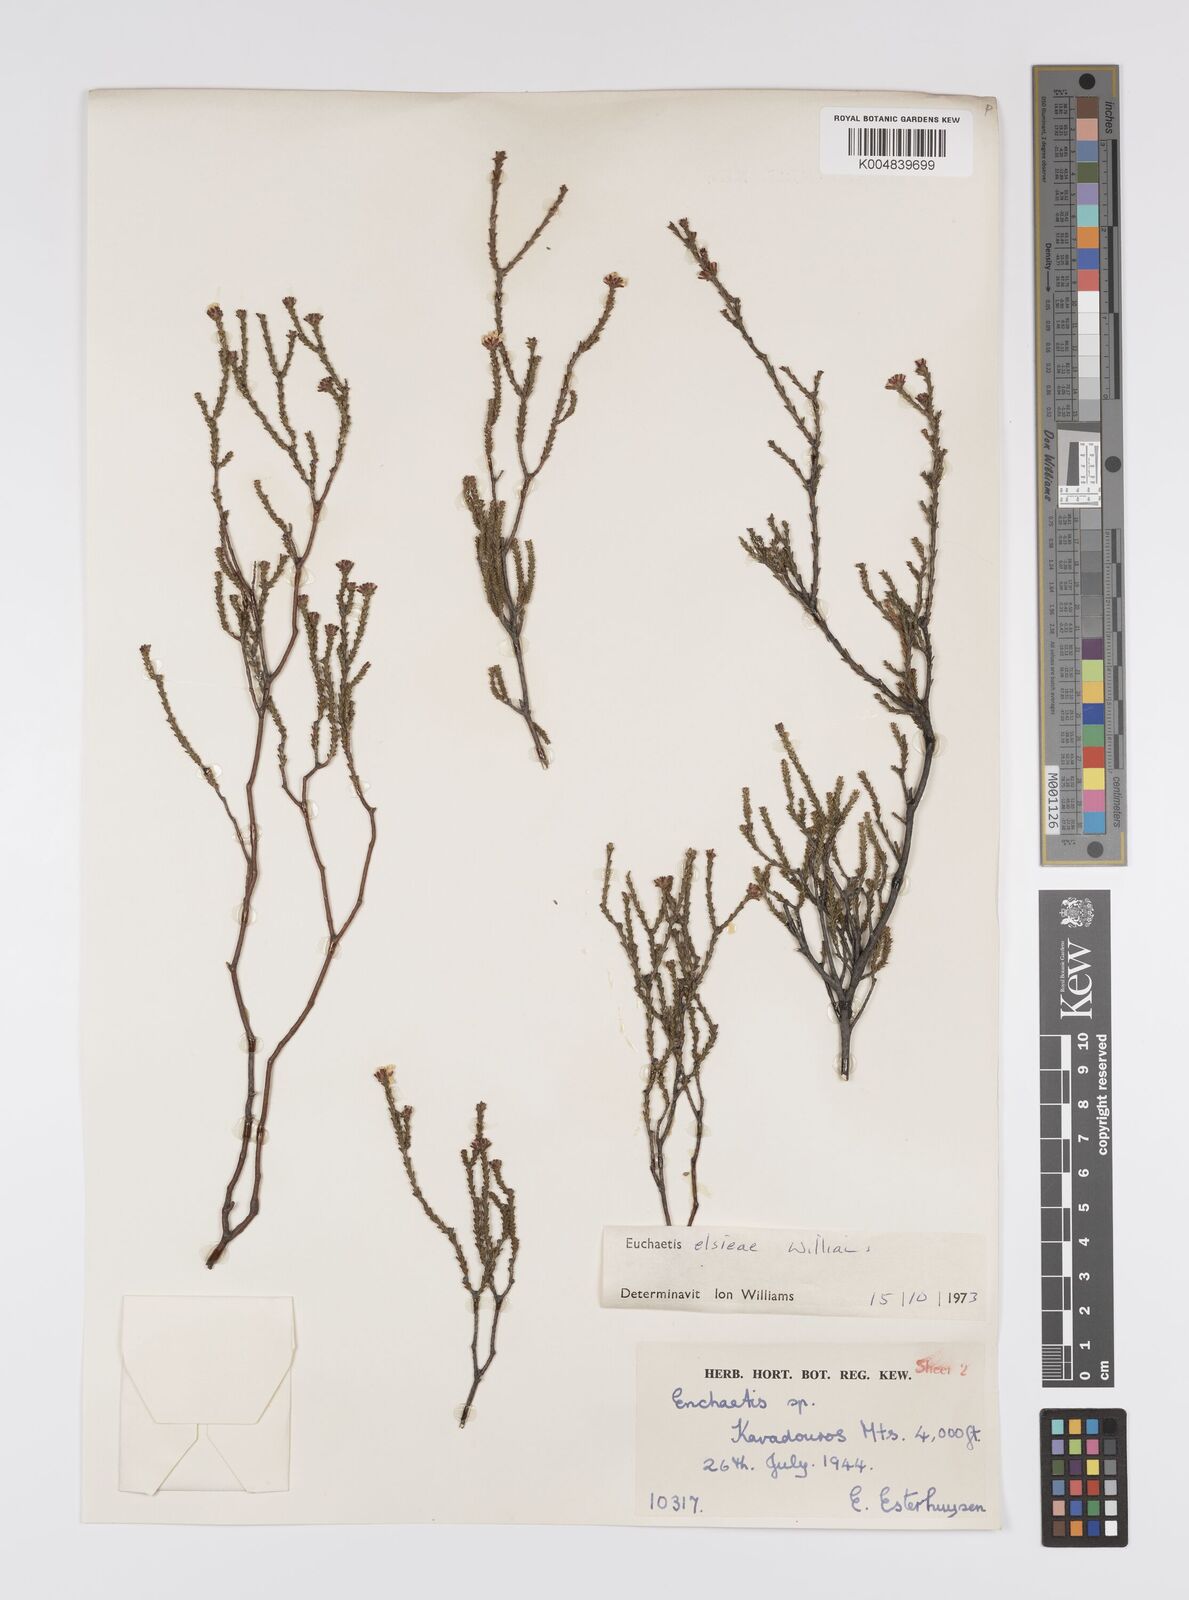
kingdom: Plantae
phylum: Tracheophyta
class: Magnoliopsida
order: Sapindales
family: Rutaceae
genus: Euchaetis
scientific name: Euchaetis elsieae
